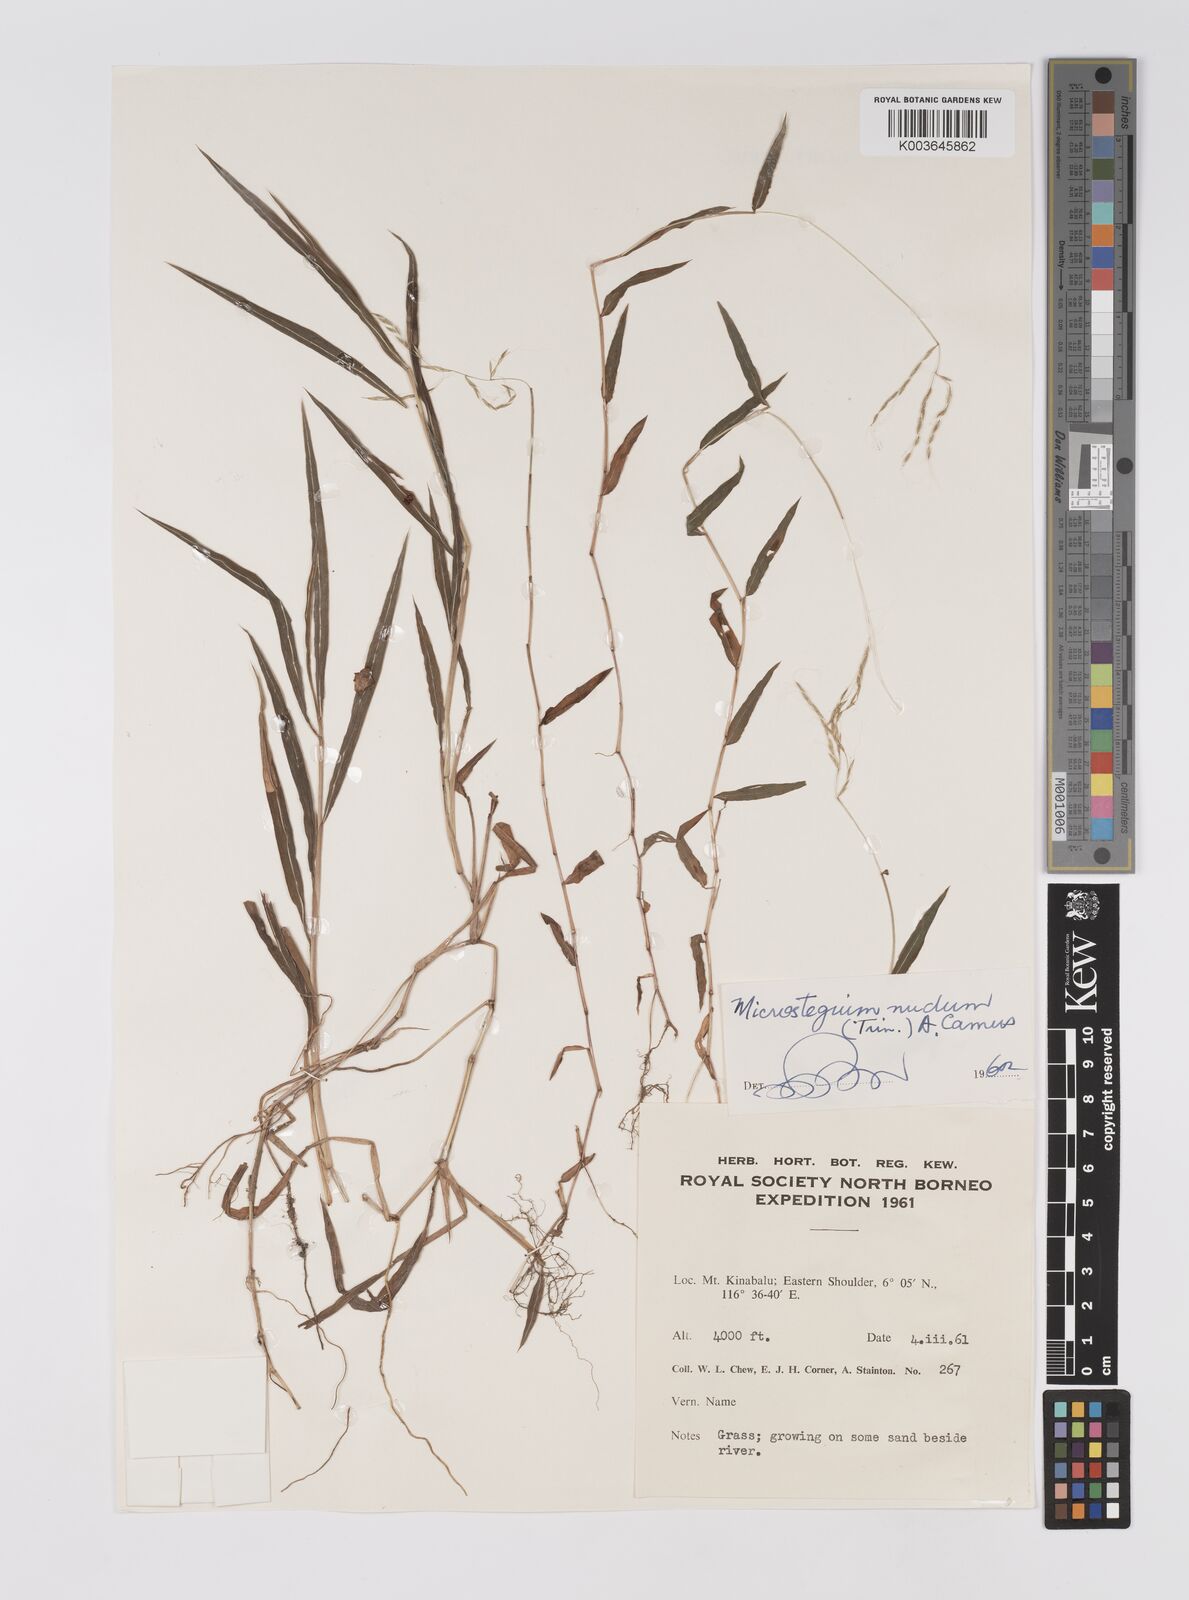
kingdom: Plantae
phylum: Tracheophyta
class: Liliopsida
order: Poales
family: Poaceae
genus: Microstegium
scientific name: Microstegium nudum
